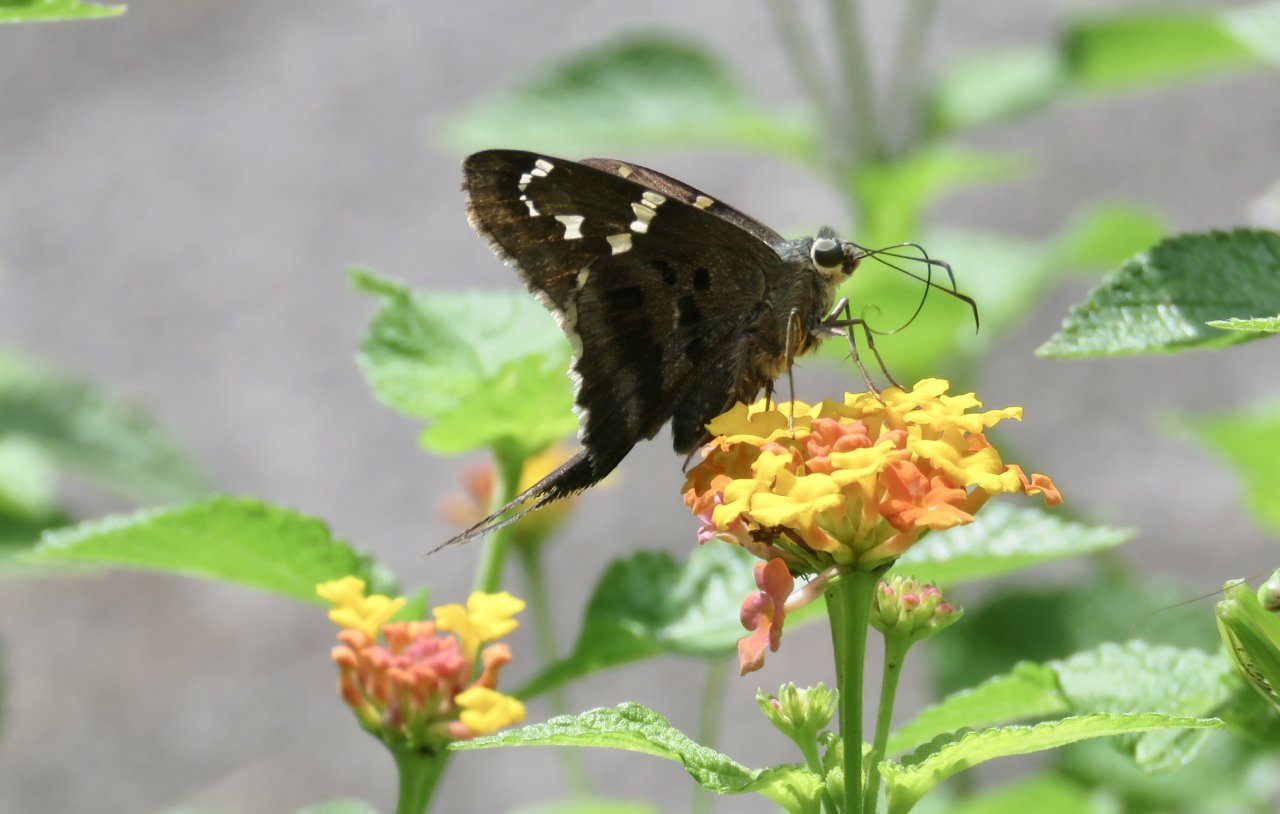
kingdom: Animalia
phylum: Arthropoda
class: Insecta
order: Lepidoptera
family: Hesperiidae
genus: Urbanus
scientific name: Urbanus proteus
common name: Long-tailed Skipper
